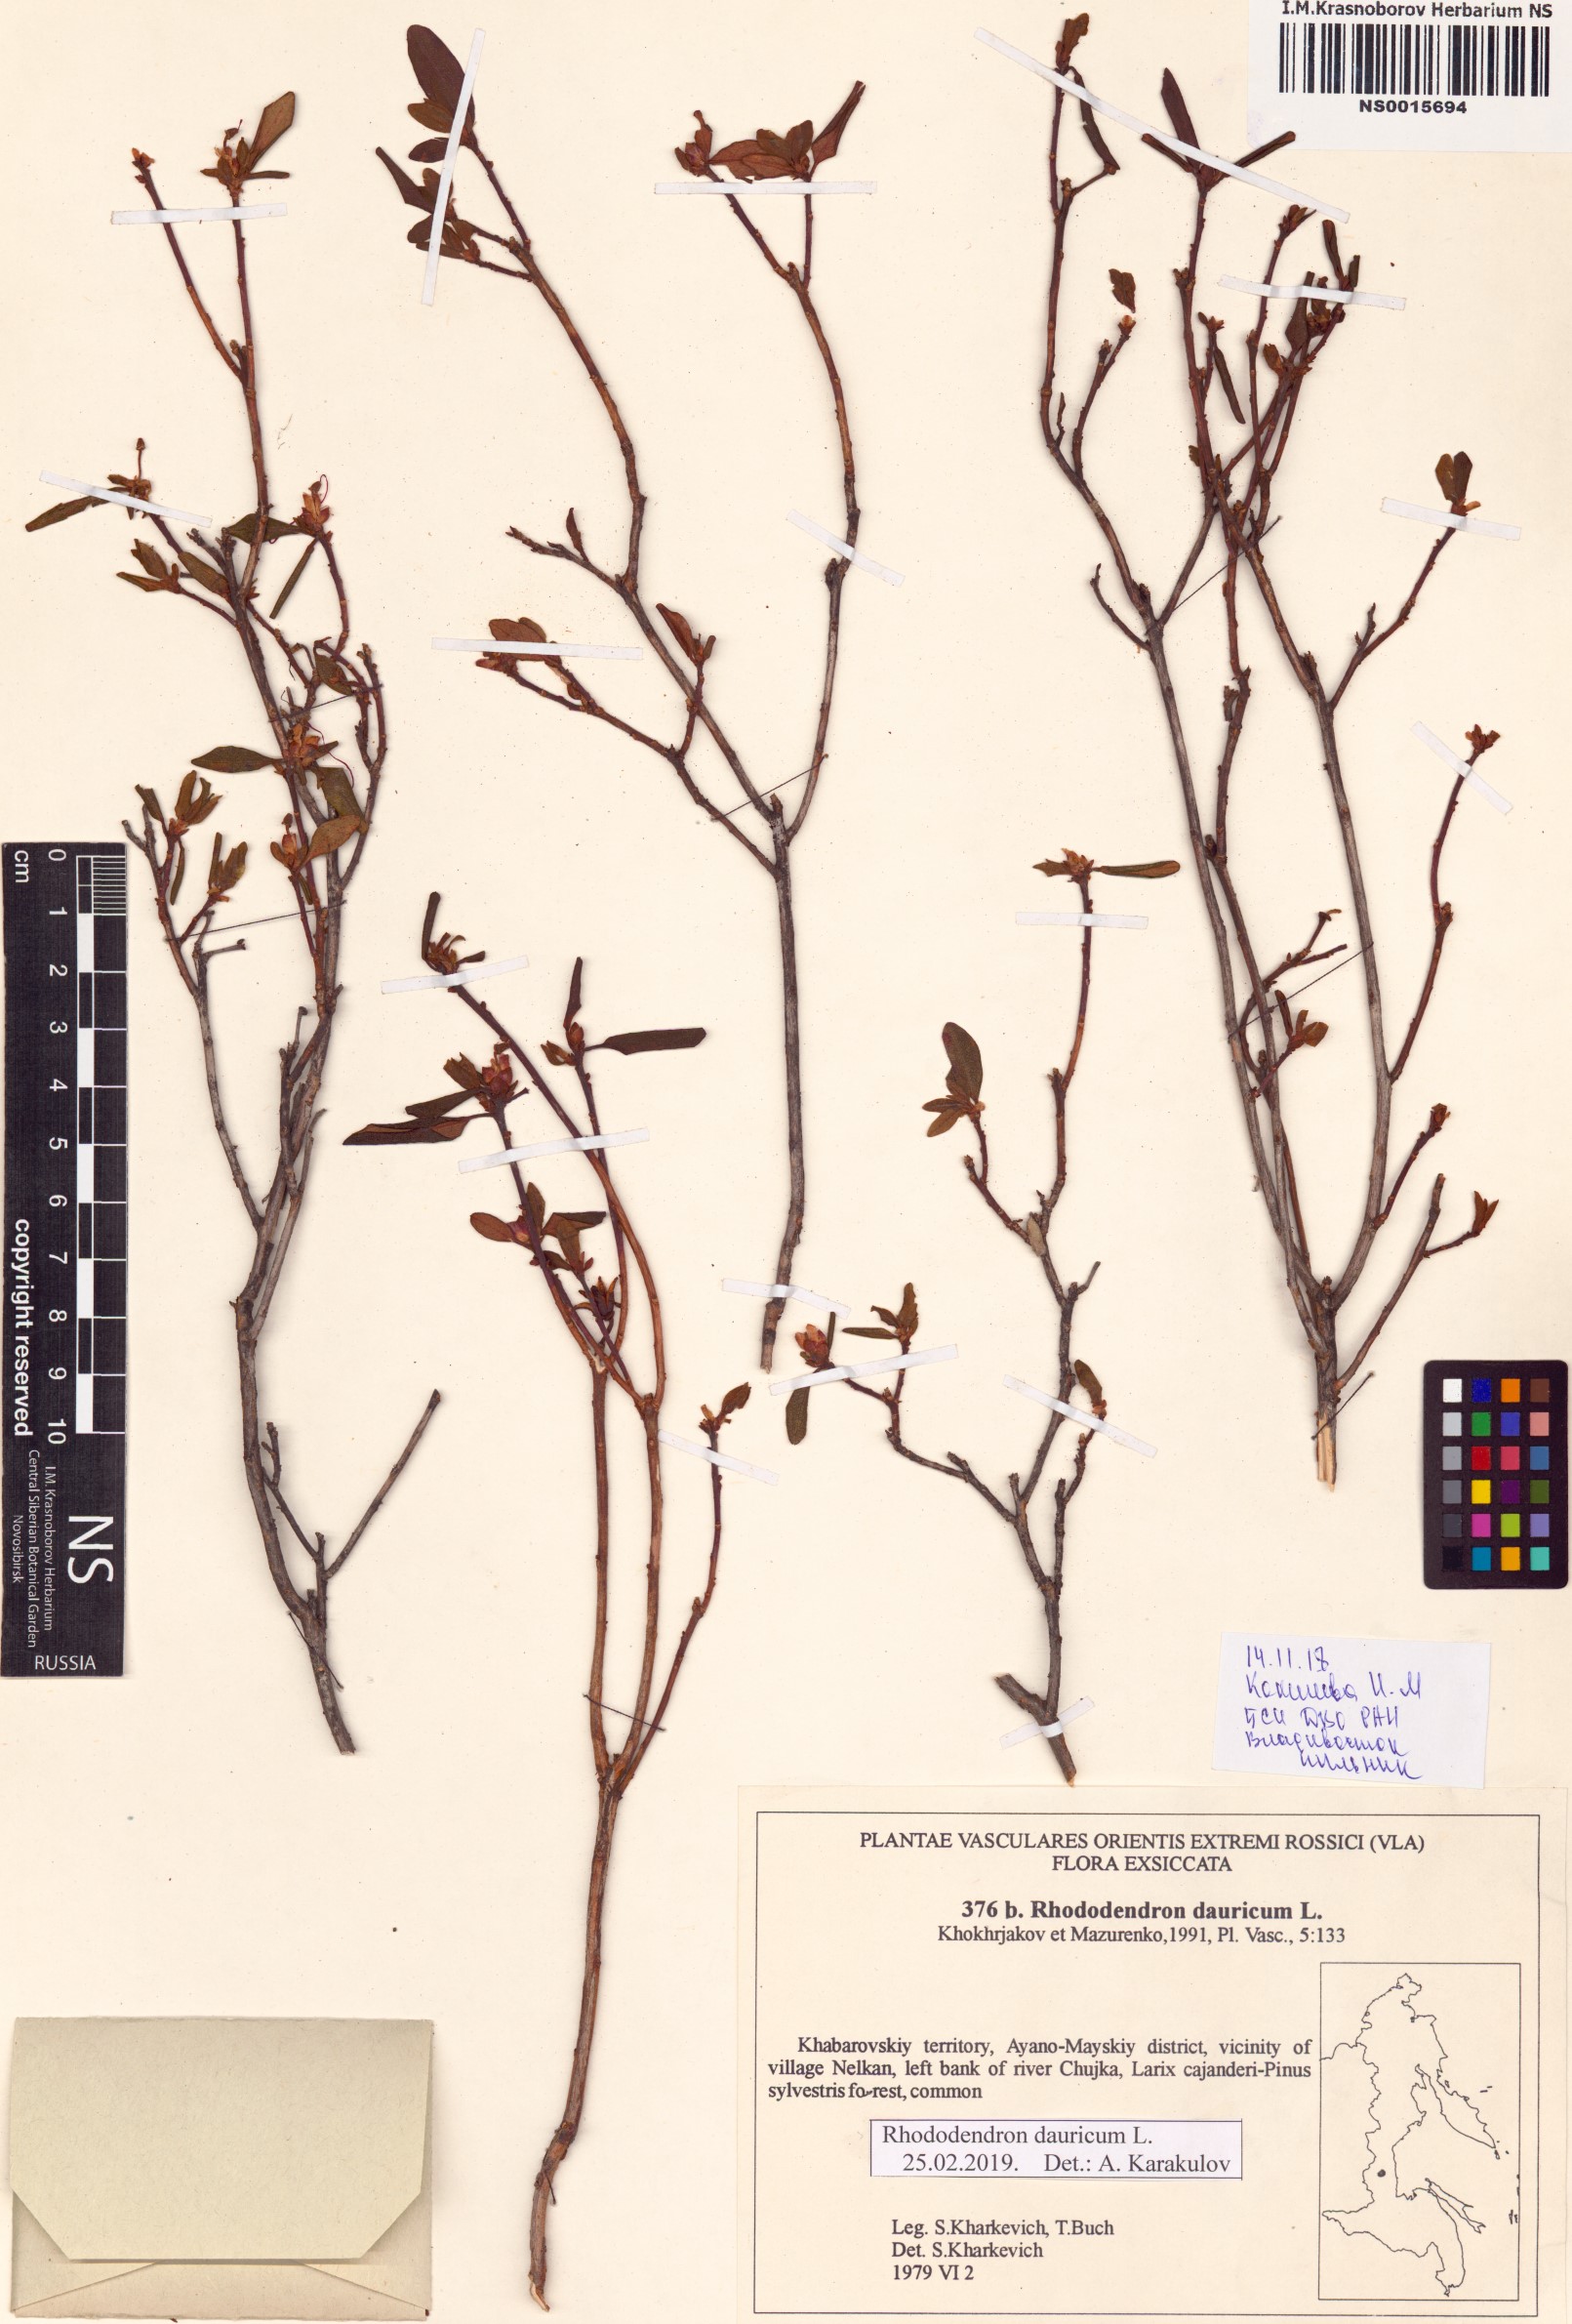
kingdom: Plantae
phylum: Tracheophyta
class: Magnoliopsida
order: Ericales
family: Ericaceae
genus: Rhododendron
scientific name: Rhododendron dauricum
